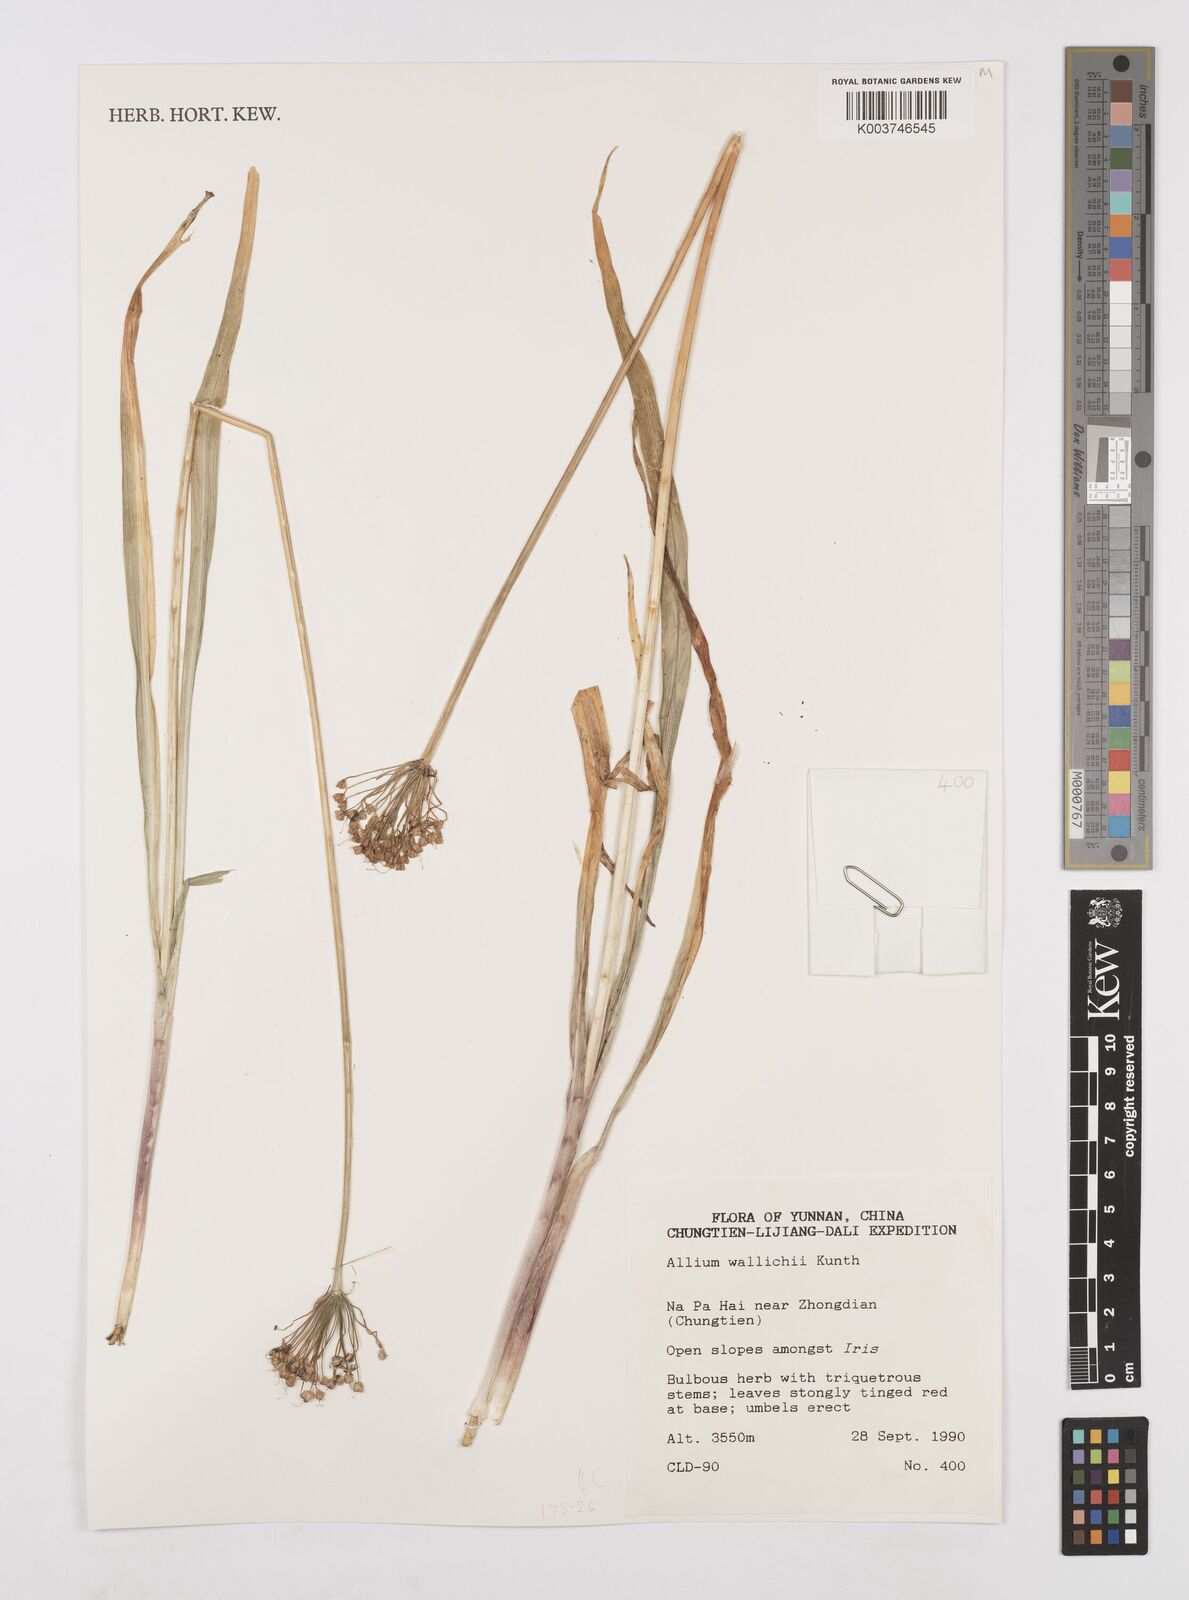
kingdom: Plantae
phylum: Tracheophyta
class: Liliopsida
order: Asparagales
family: Amaryllidaceae
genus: Allium
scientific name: Allium wallichii
